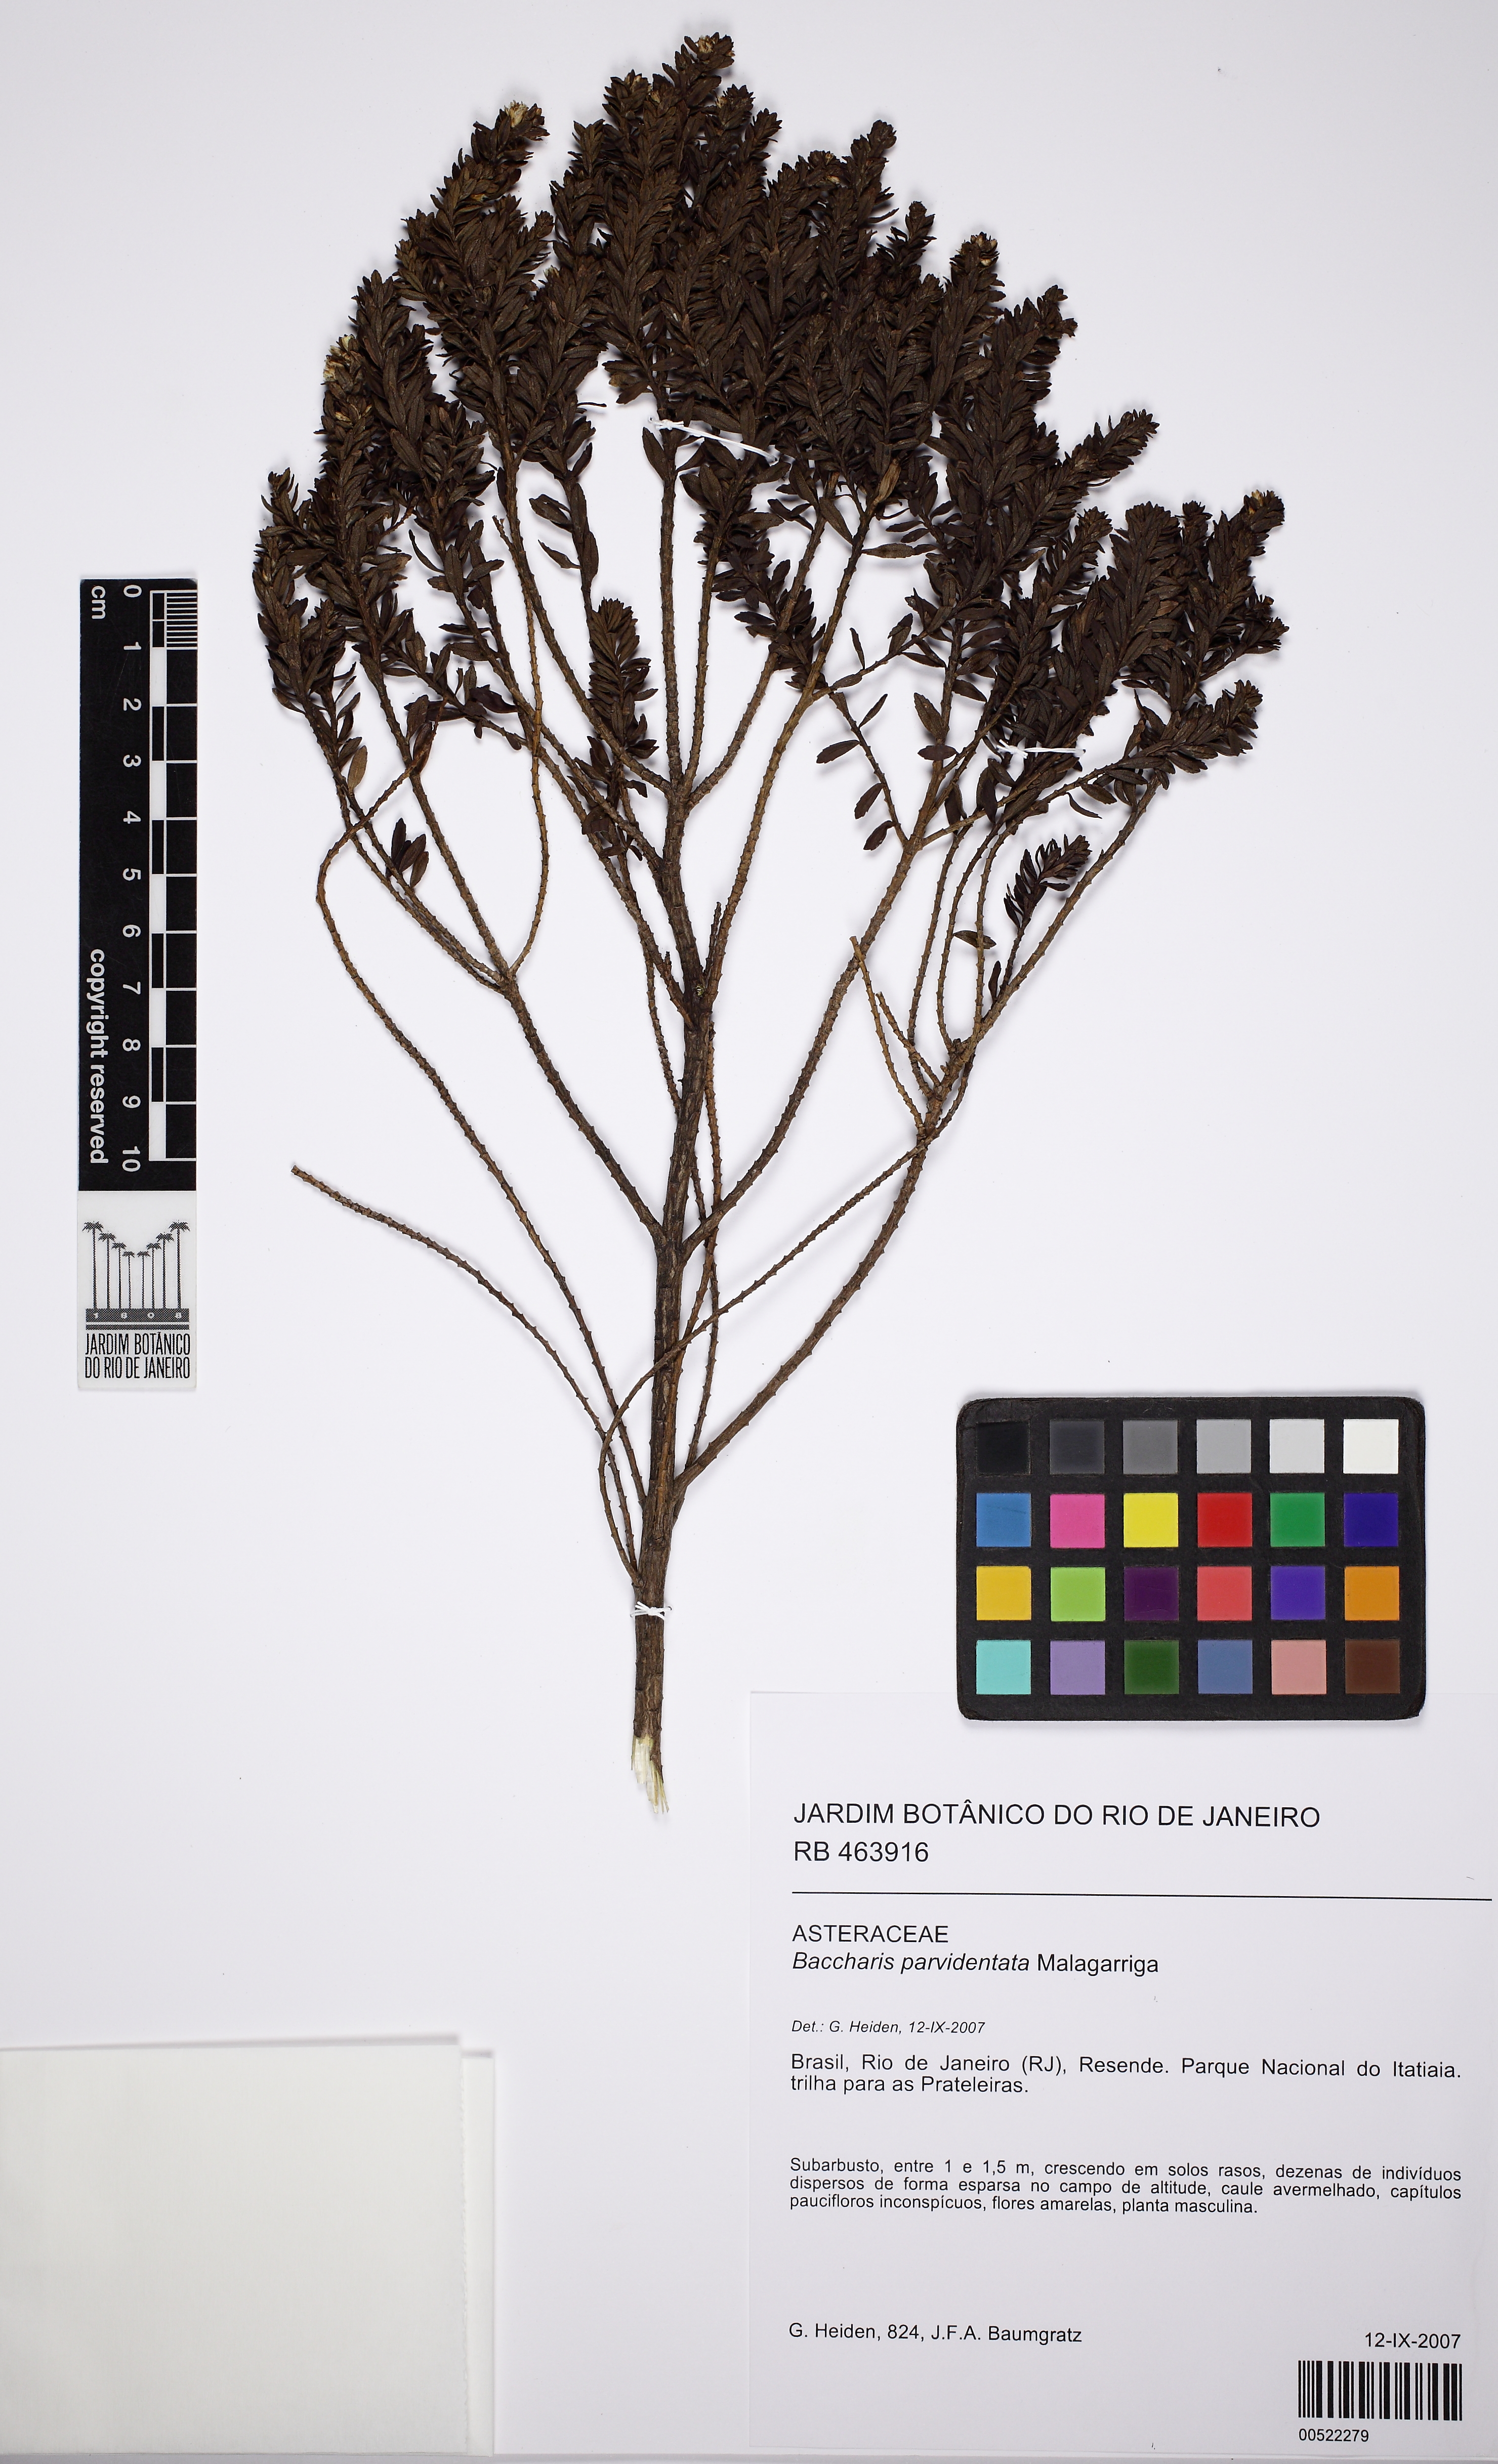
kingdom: Plantae
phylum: Tracheophyta
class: Magnoliopsida
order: Asterales
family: Asteraceae
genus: Baccharis
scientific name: Baccharis parvidentata
